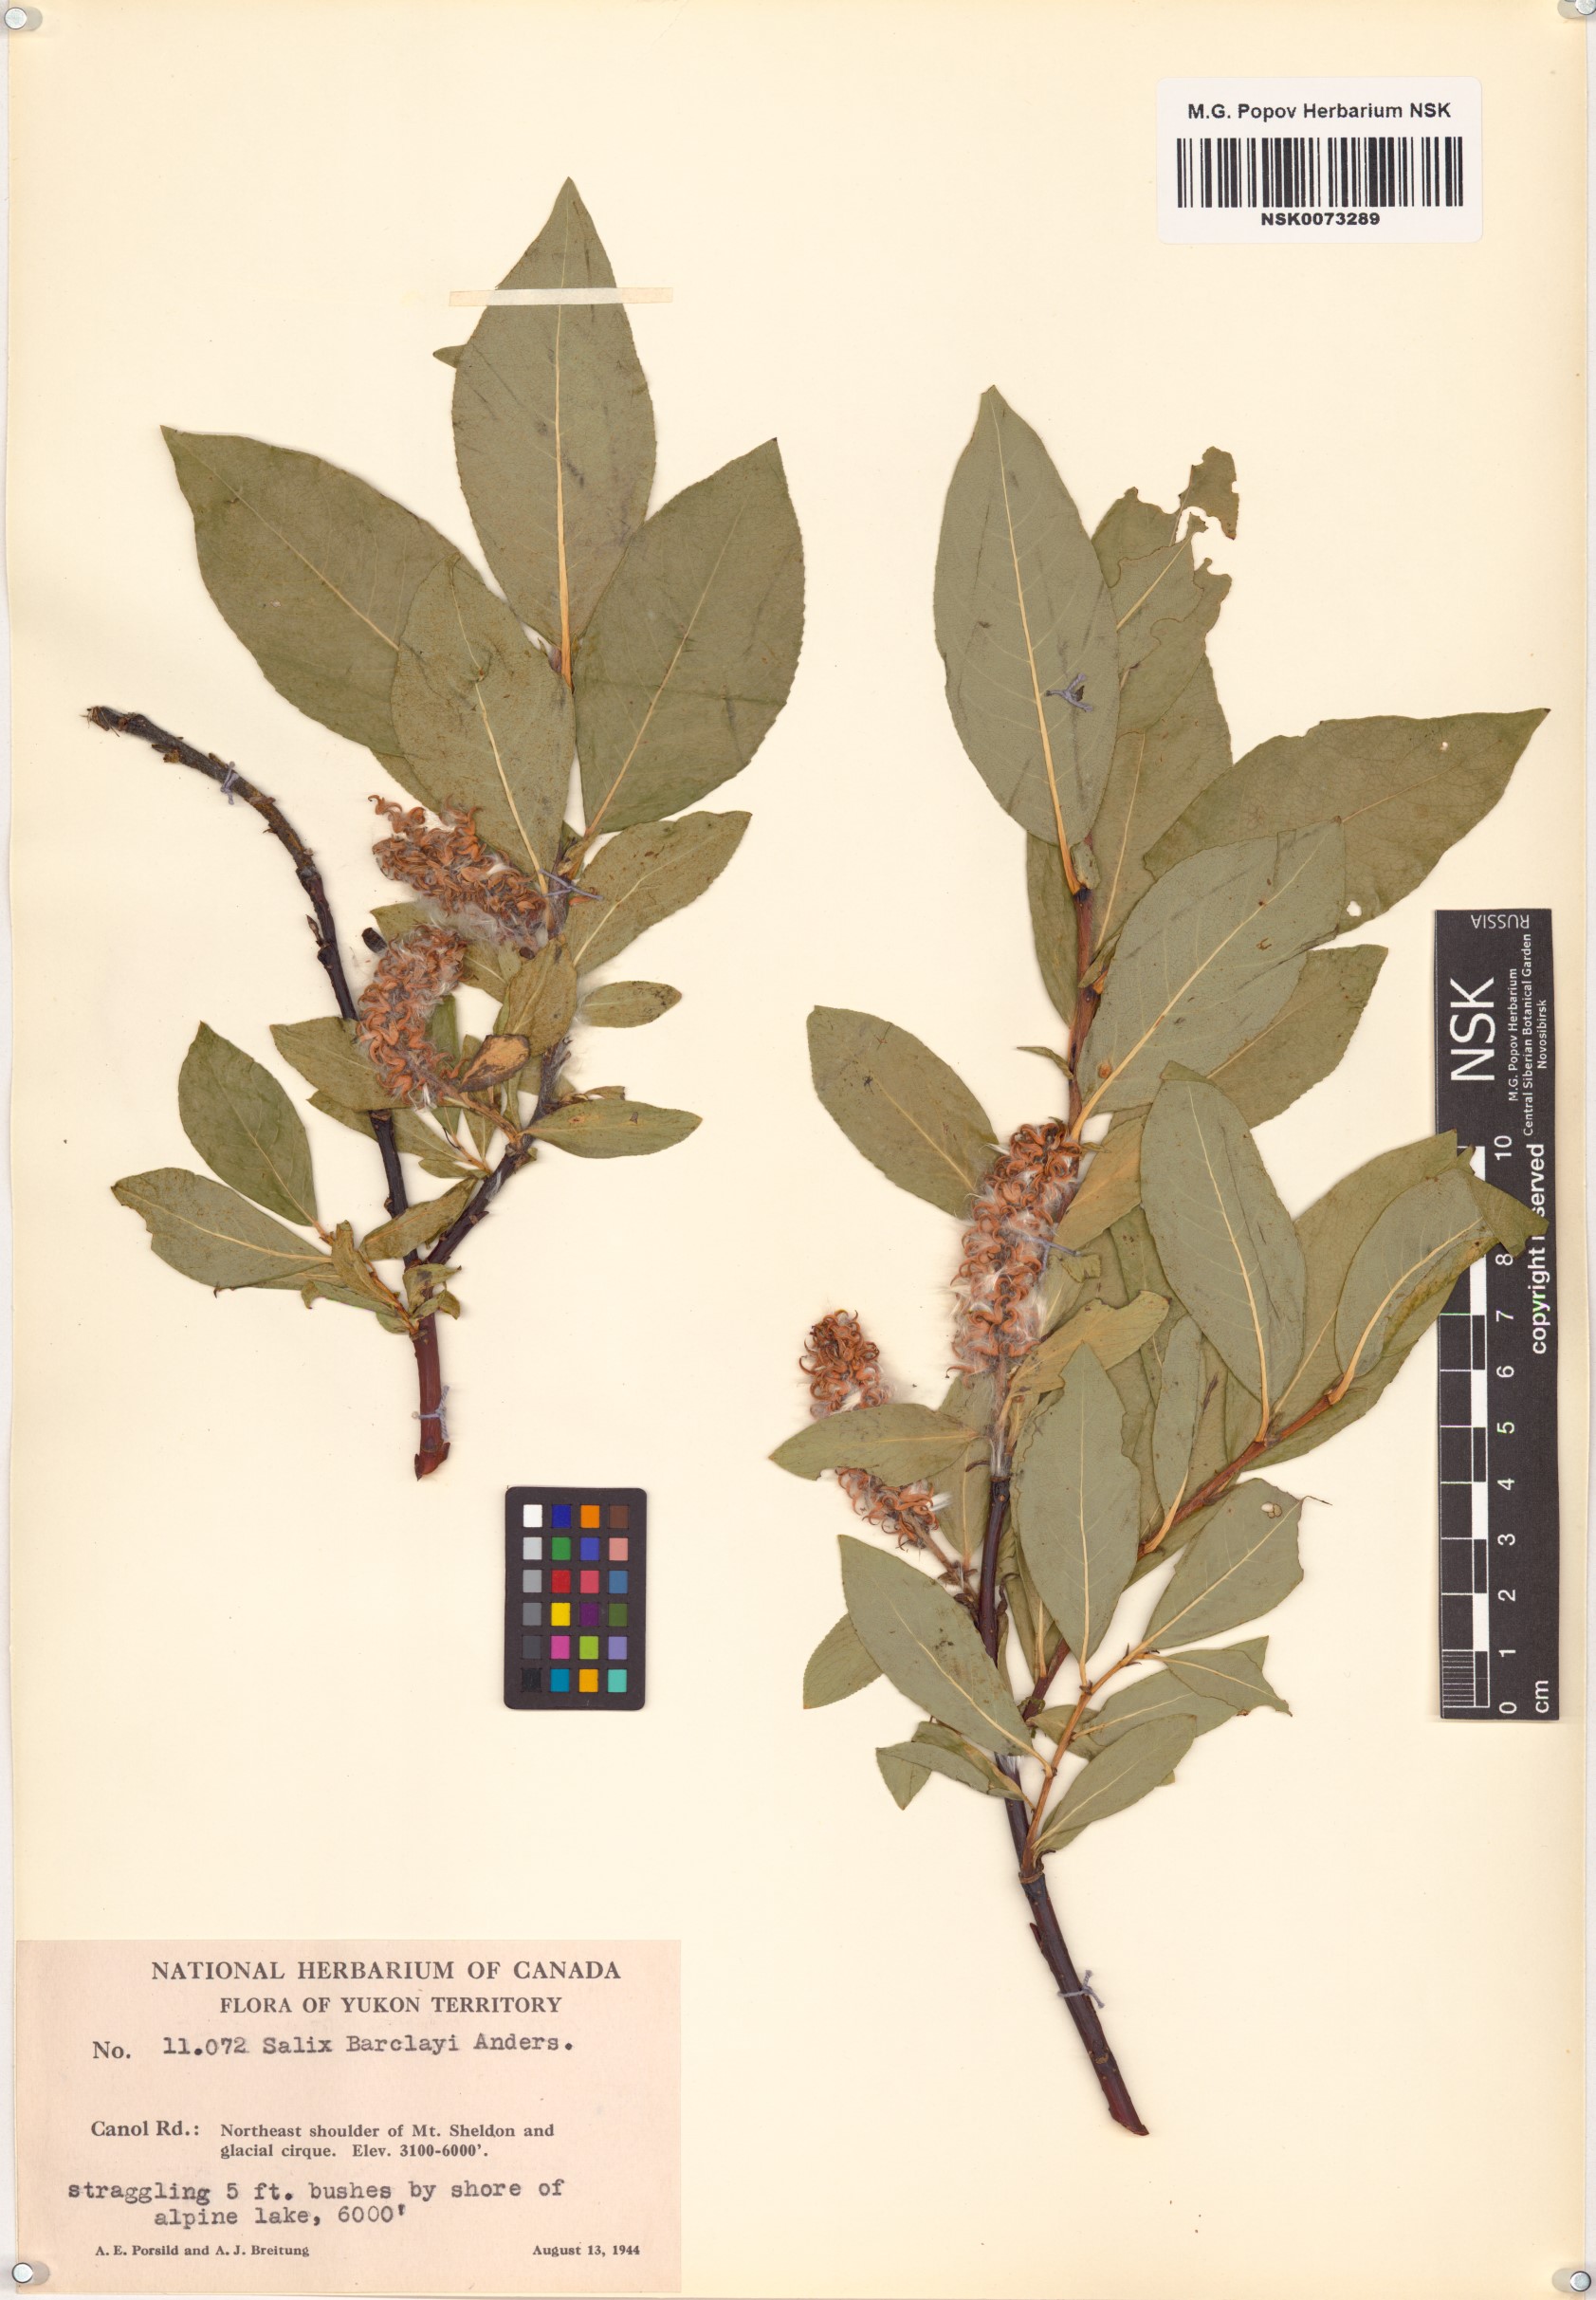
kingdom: Plantae
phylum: Tracheophyta
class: Magnoliopsida
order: Malpighiales
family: Salicaceae
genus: Salix
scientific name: Salix barclayi
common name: Mountain willow
